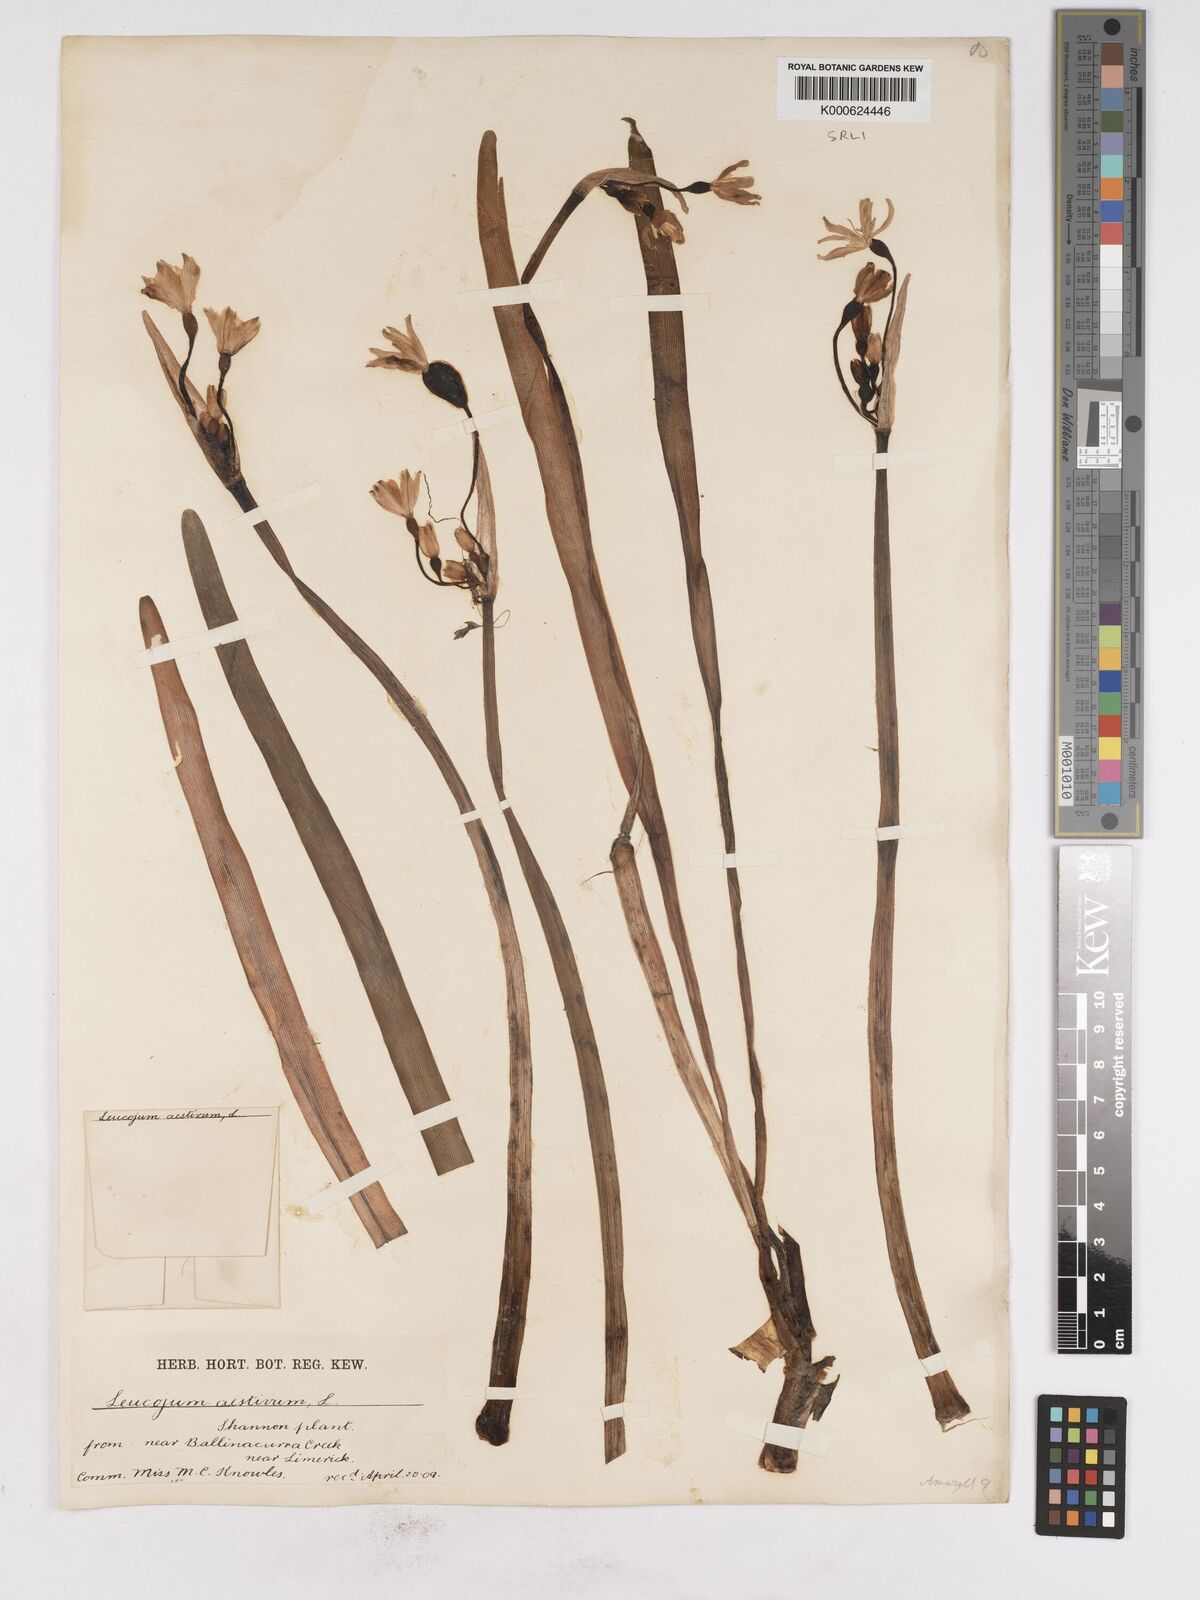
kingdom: Plantae
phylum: Tracheophyta
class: Liliopsida
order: Asparagales
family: Amaryllidaceae
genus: Leucojum
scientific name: Leucojum aestivum
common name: Summer snowflake
